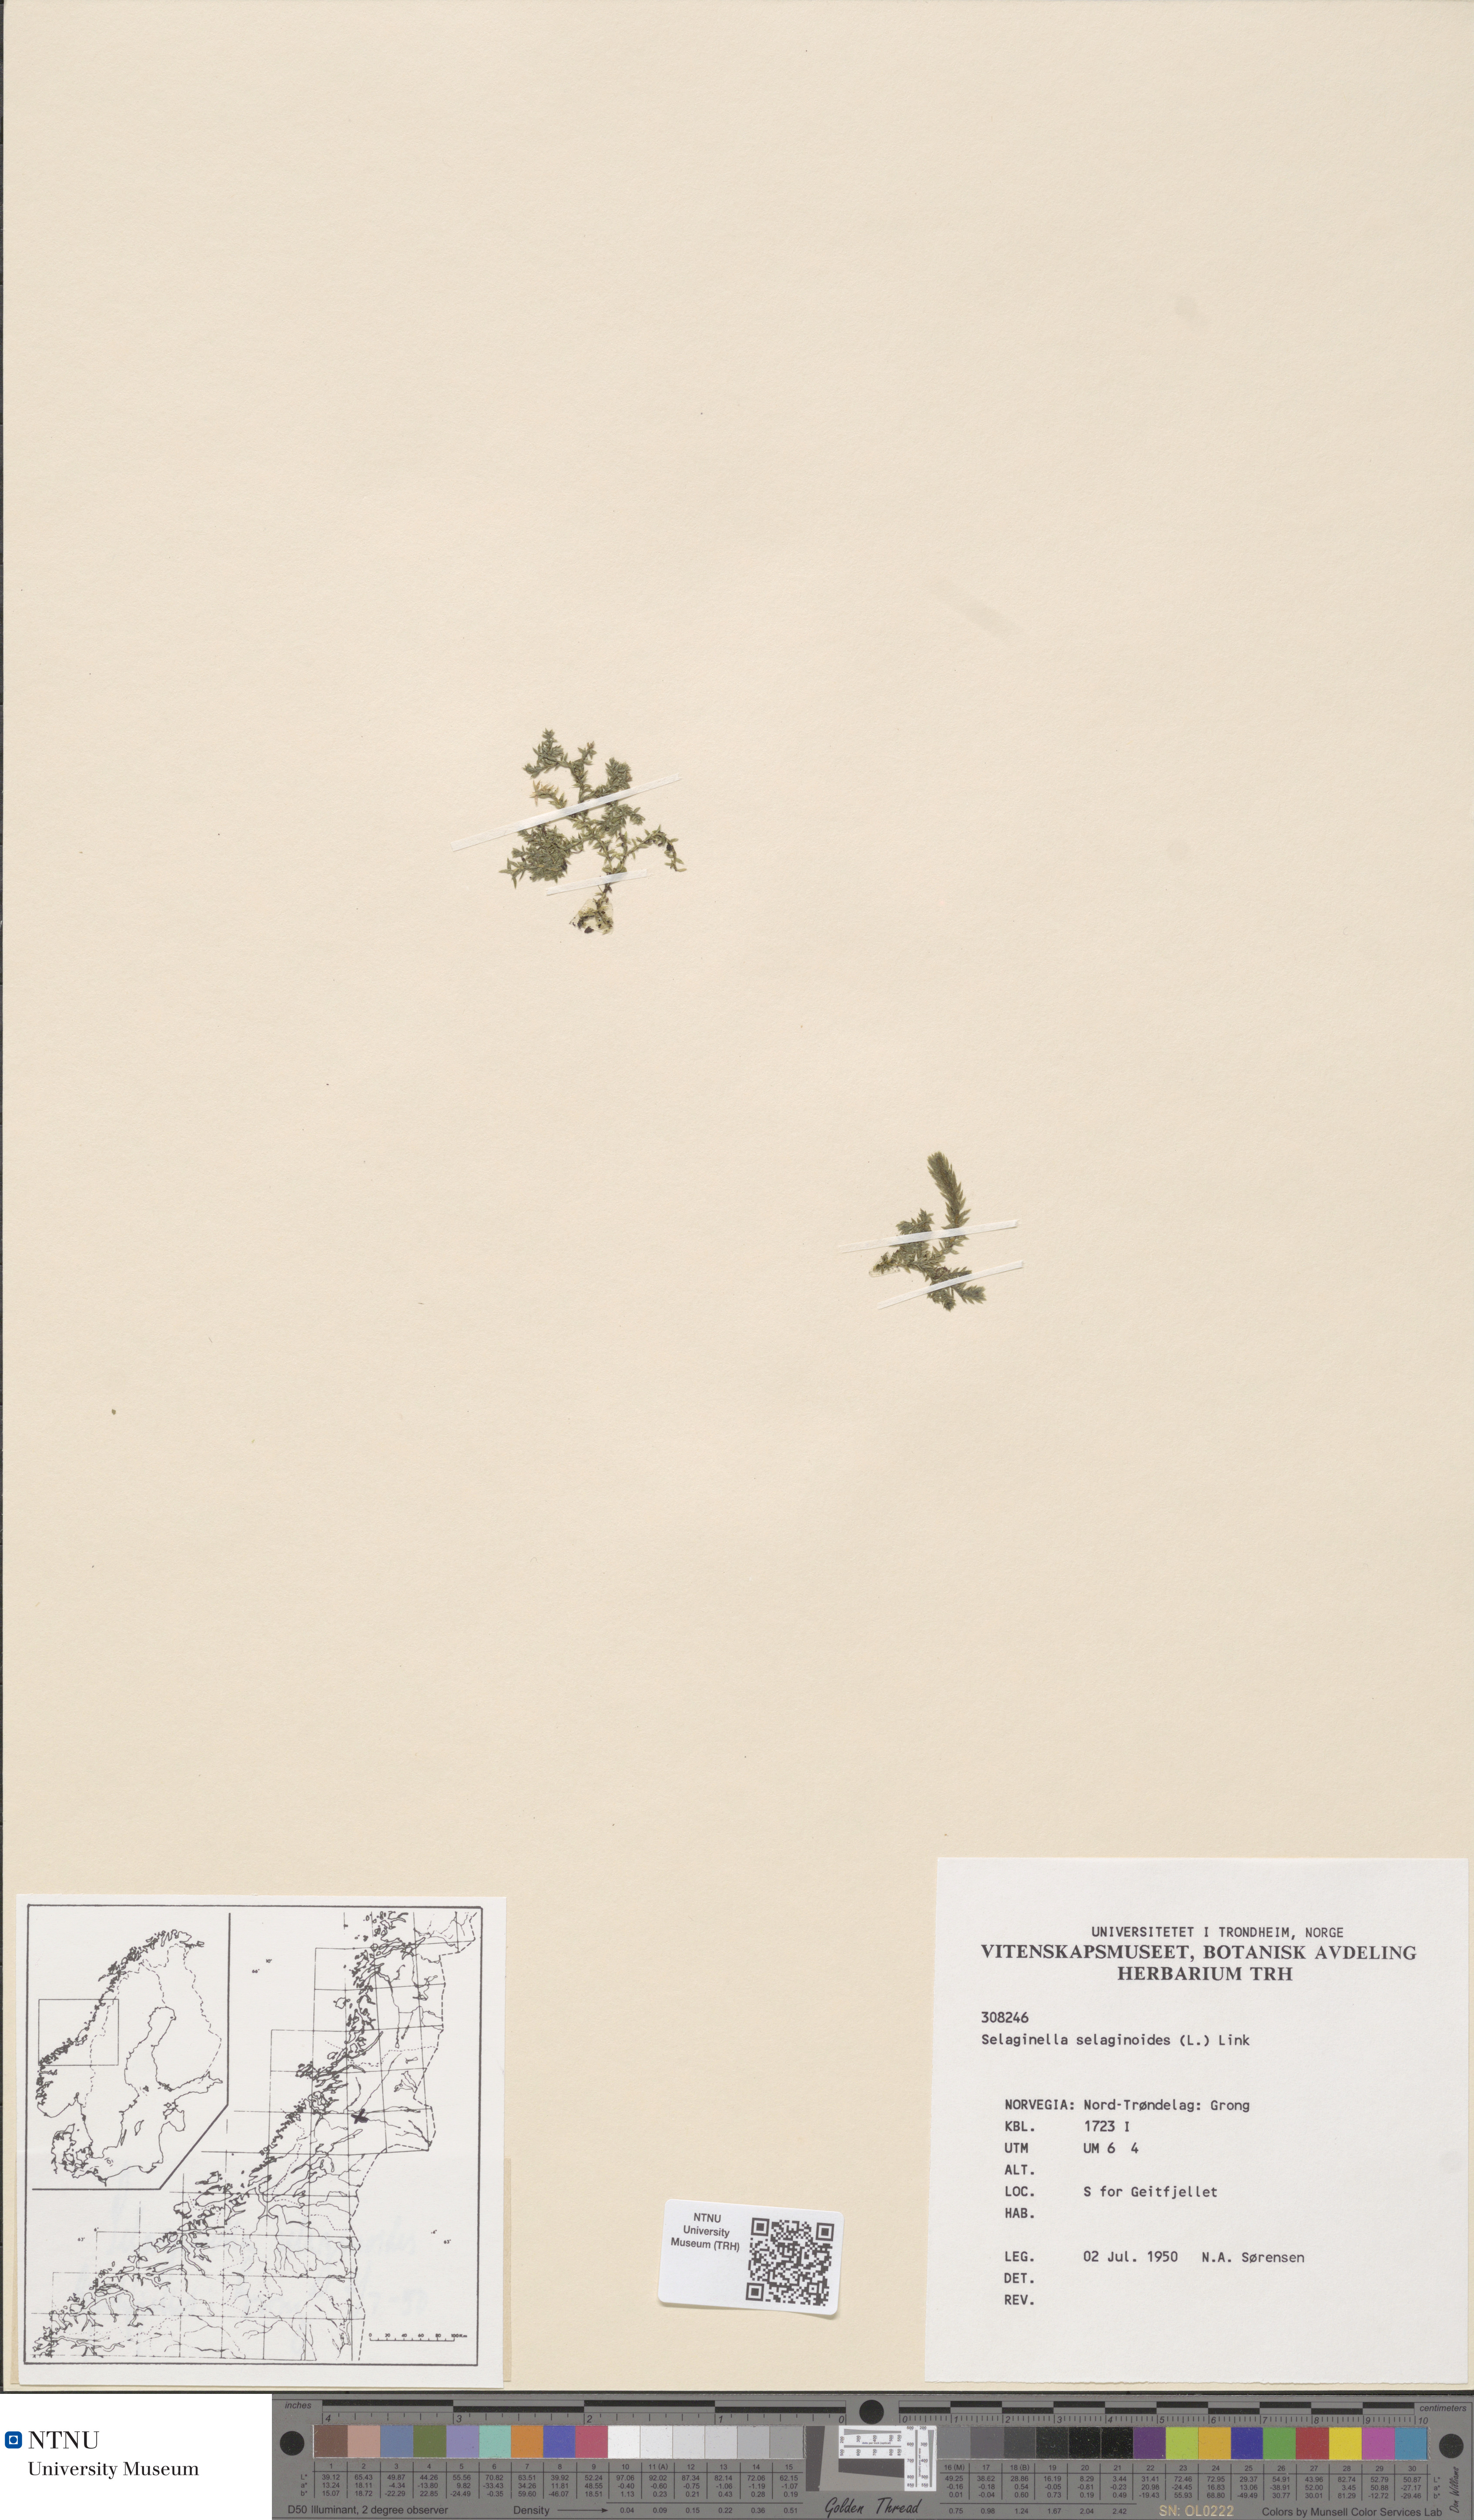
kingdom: Plantae
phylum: Tracheophyta
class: Lycopodiopsida
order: Selaginellales
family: Selaginellaceae
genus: Selaginella
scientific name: Selaginella selaginoides
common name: Prickly mountain-moss
